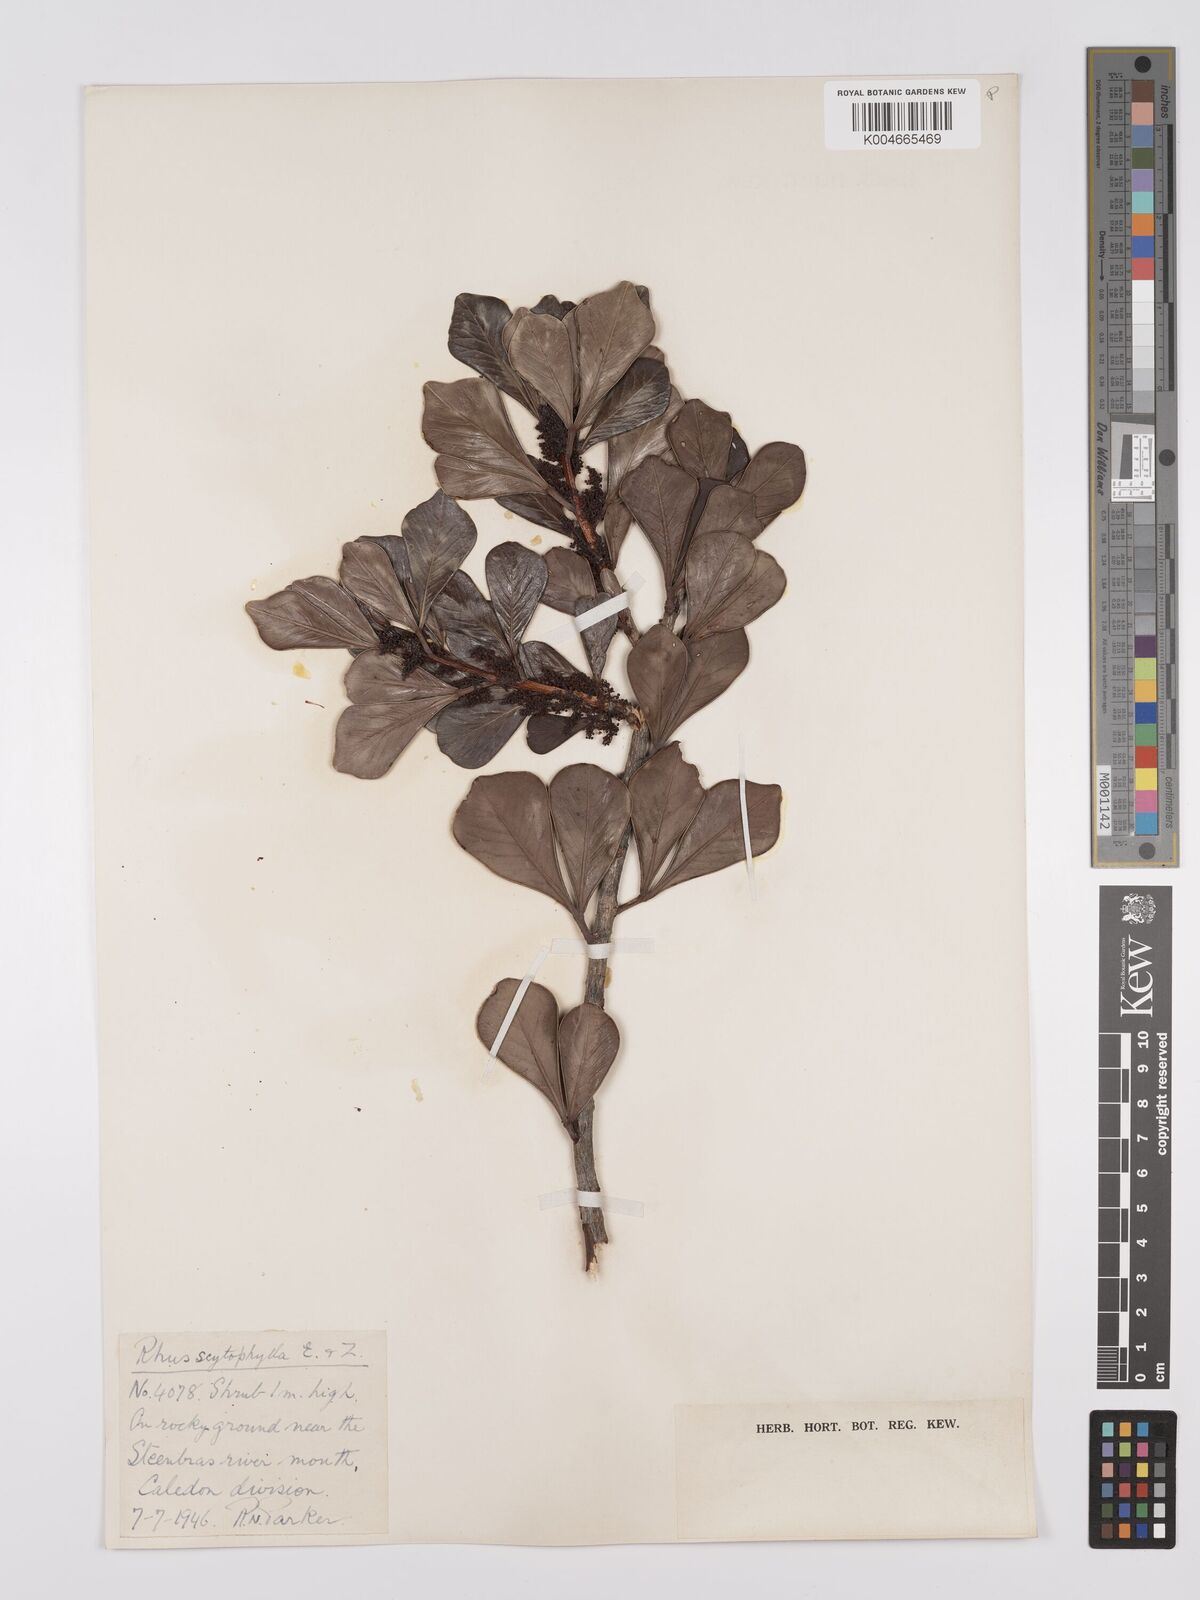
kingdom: Plantae
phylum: Tracheophyta
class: Magnoliopsida
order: Sapindales
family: Anacardiaceae
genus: Searsia
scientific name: Searsia scytophylla
